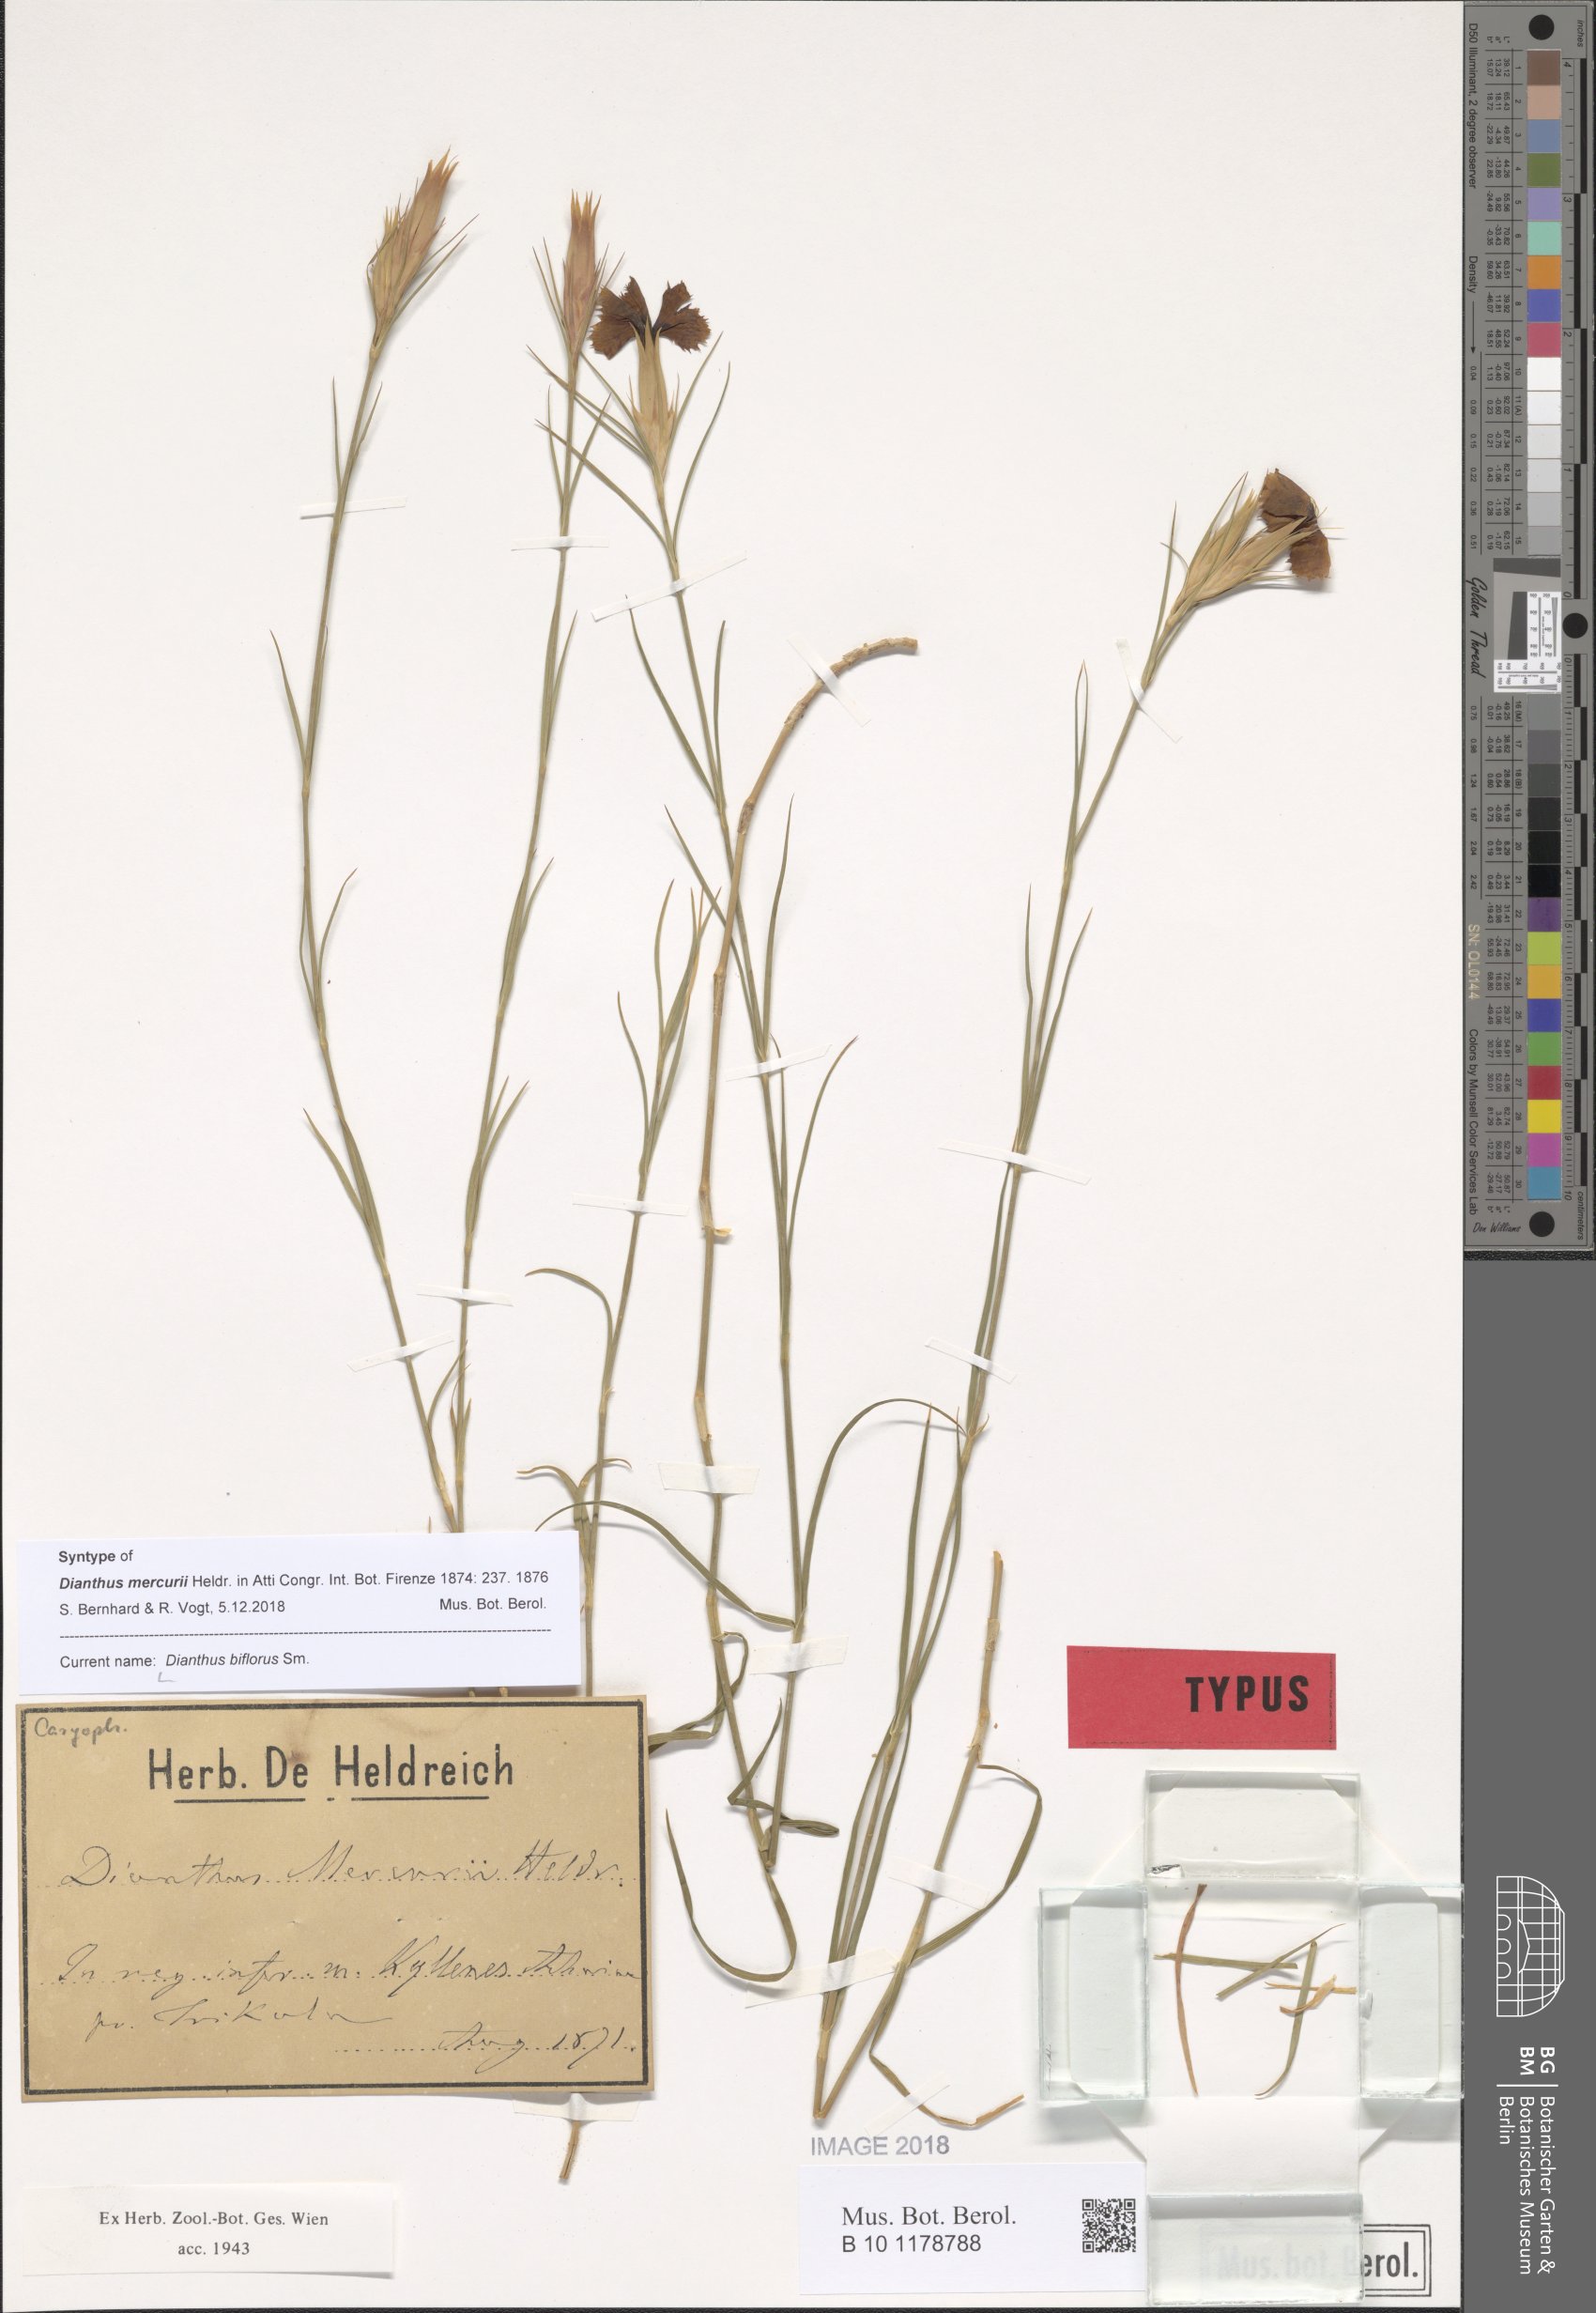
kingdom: Plantae
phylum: Tracheophyta
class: Magnoliopsida
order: Caryophyllales
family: Caryophyllaceae
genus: Dianthus
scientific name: Dianthus biflorus
